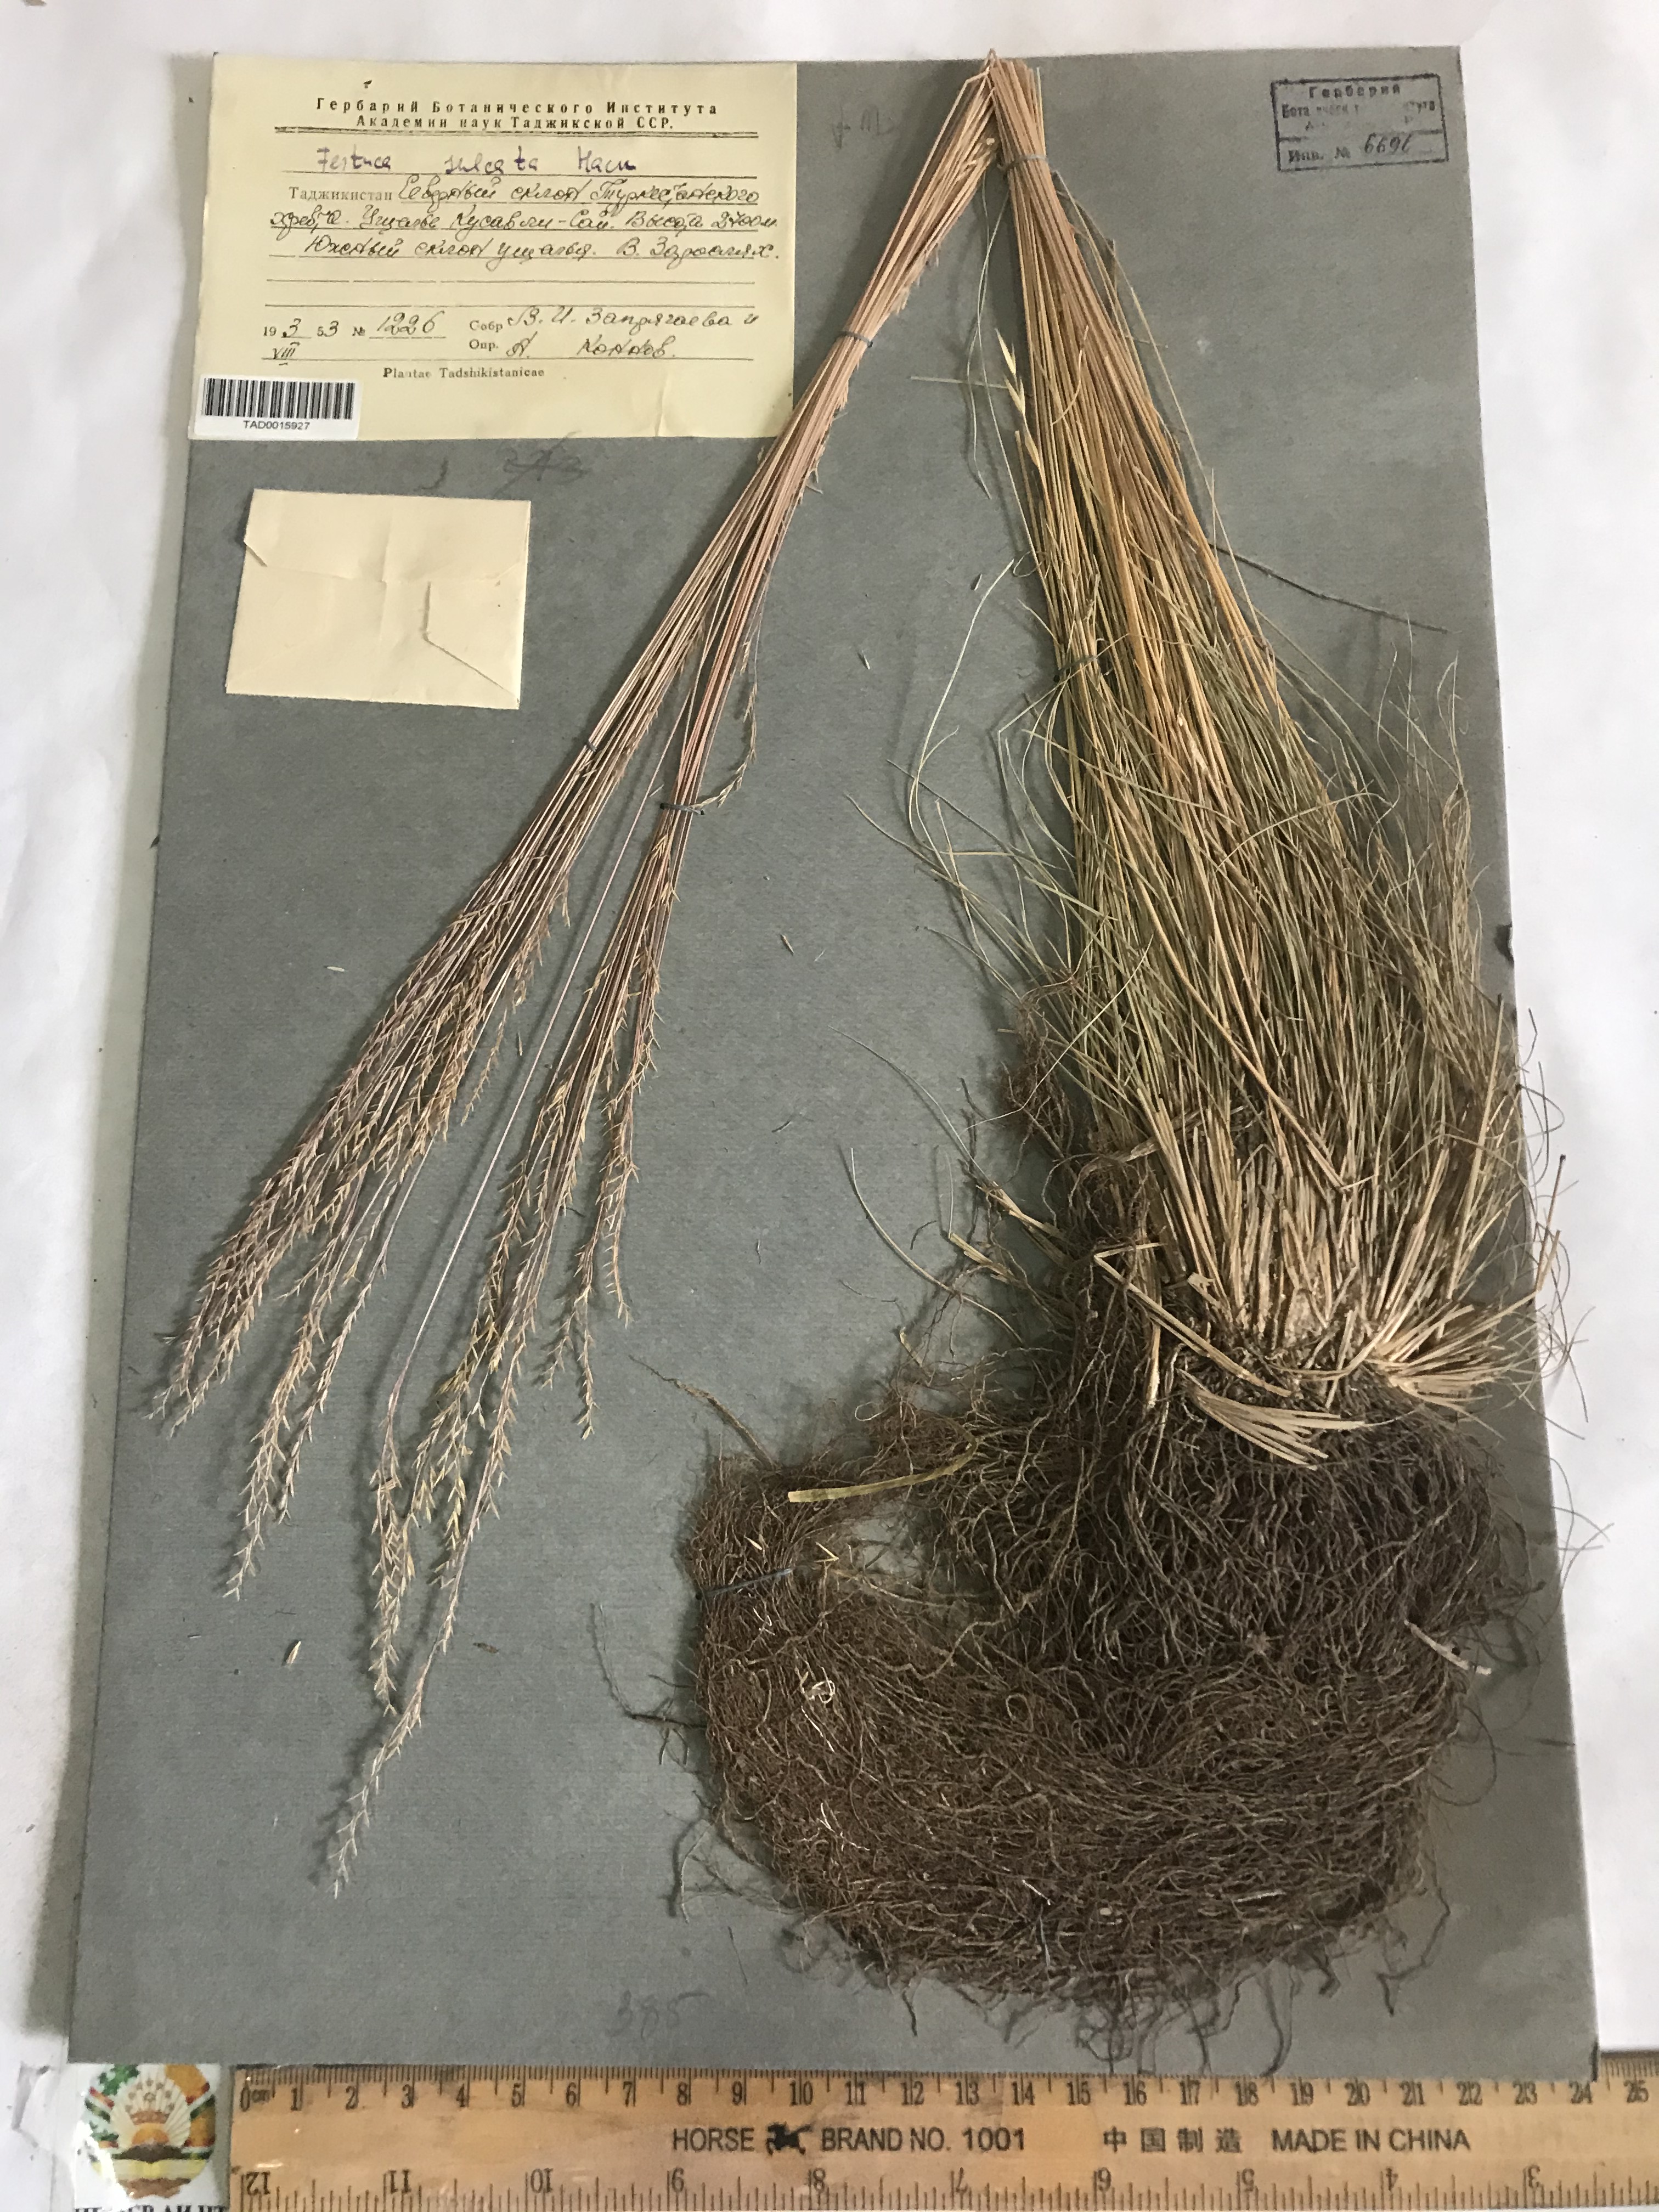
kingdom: Plantae
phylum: Tracheophyta
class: Liliopsida
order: Poales
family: Poaceae
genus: Festuca
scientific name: Festuca sulcata
